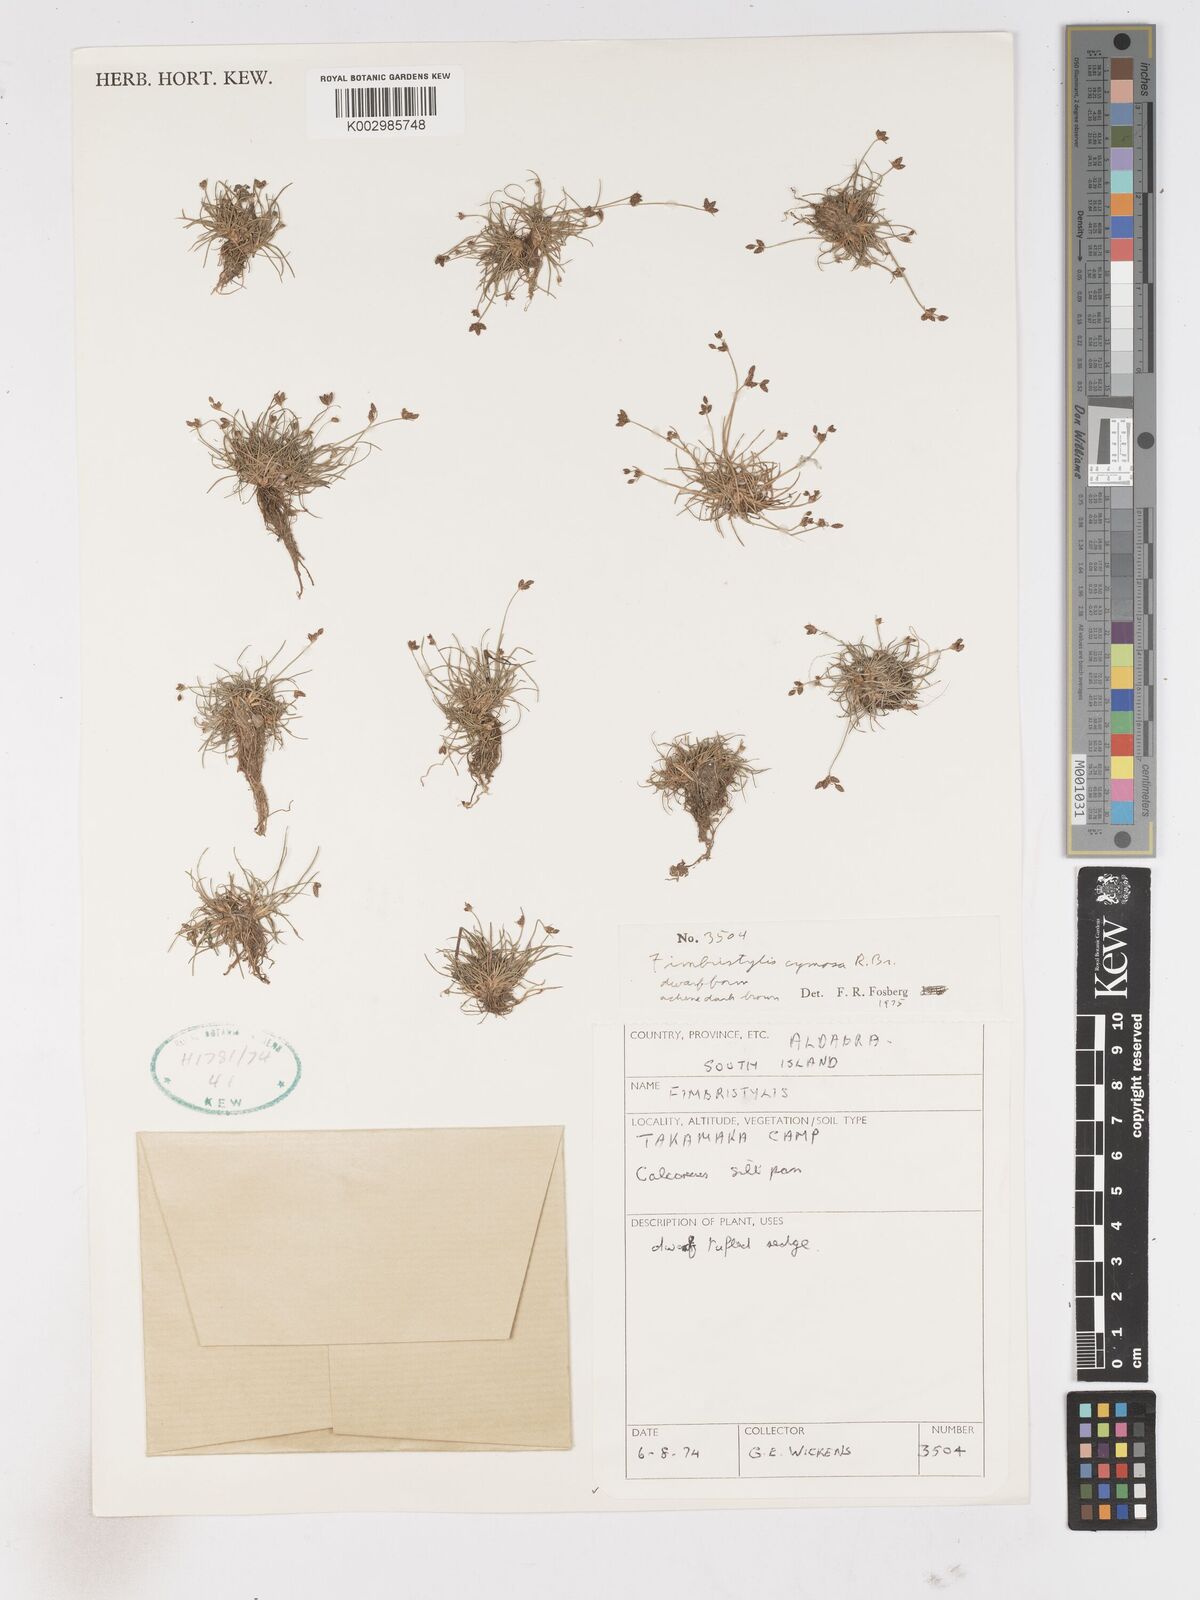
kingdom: Plantae
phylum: Tracheophyta
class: Liliopsida
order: Poales
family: Cyperaceae
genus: Fimbristylis
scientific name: Fimbristylis cymosa
